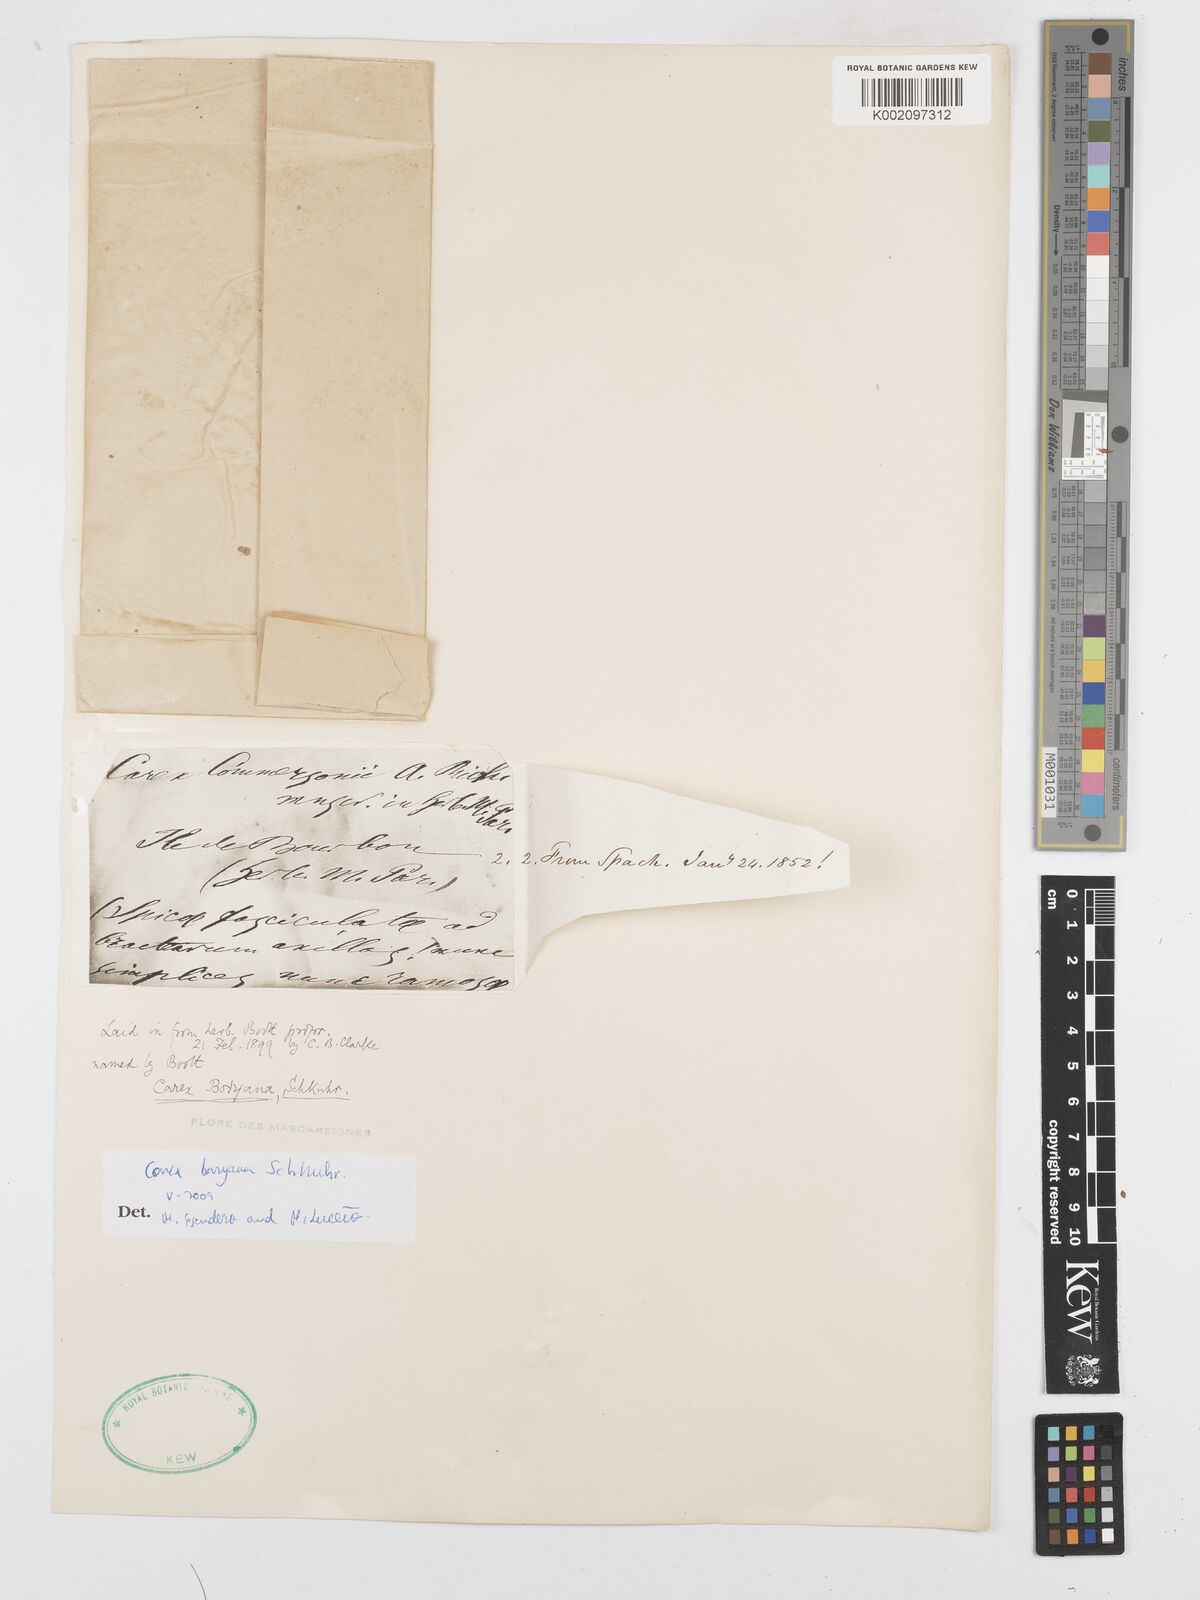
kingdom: Plantae
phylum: Tracheophyta
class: Liliopsida
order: Poales
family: Cyperaceae
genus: Carex
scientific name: Carex boryana
